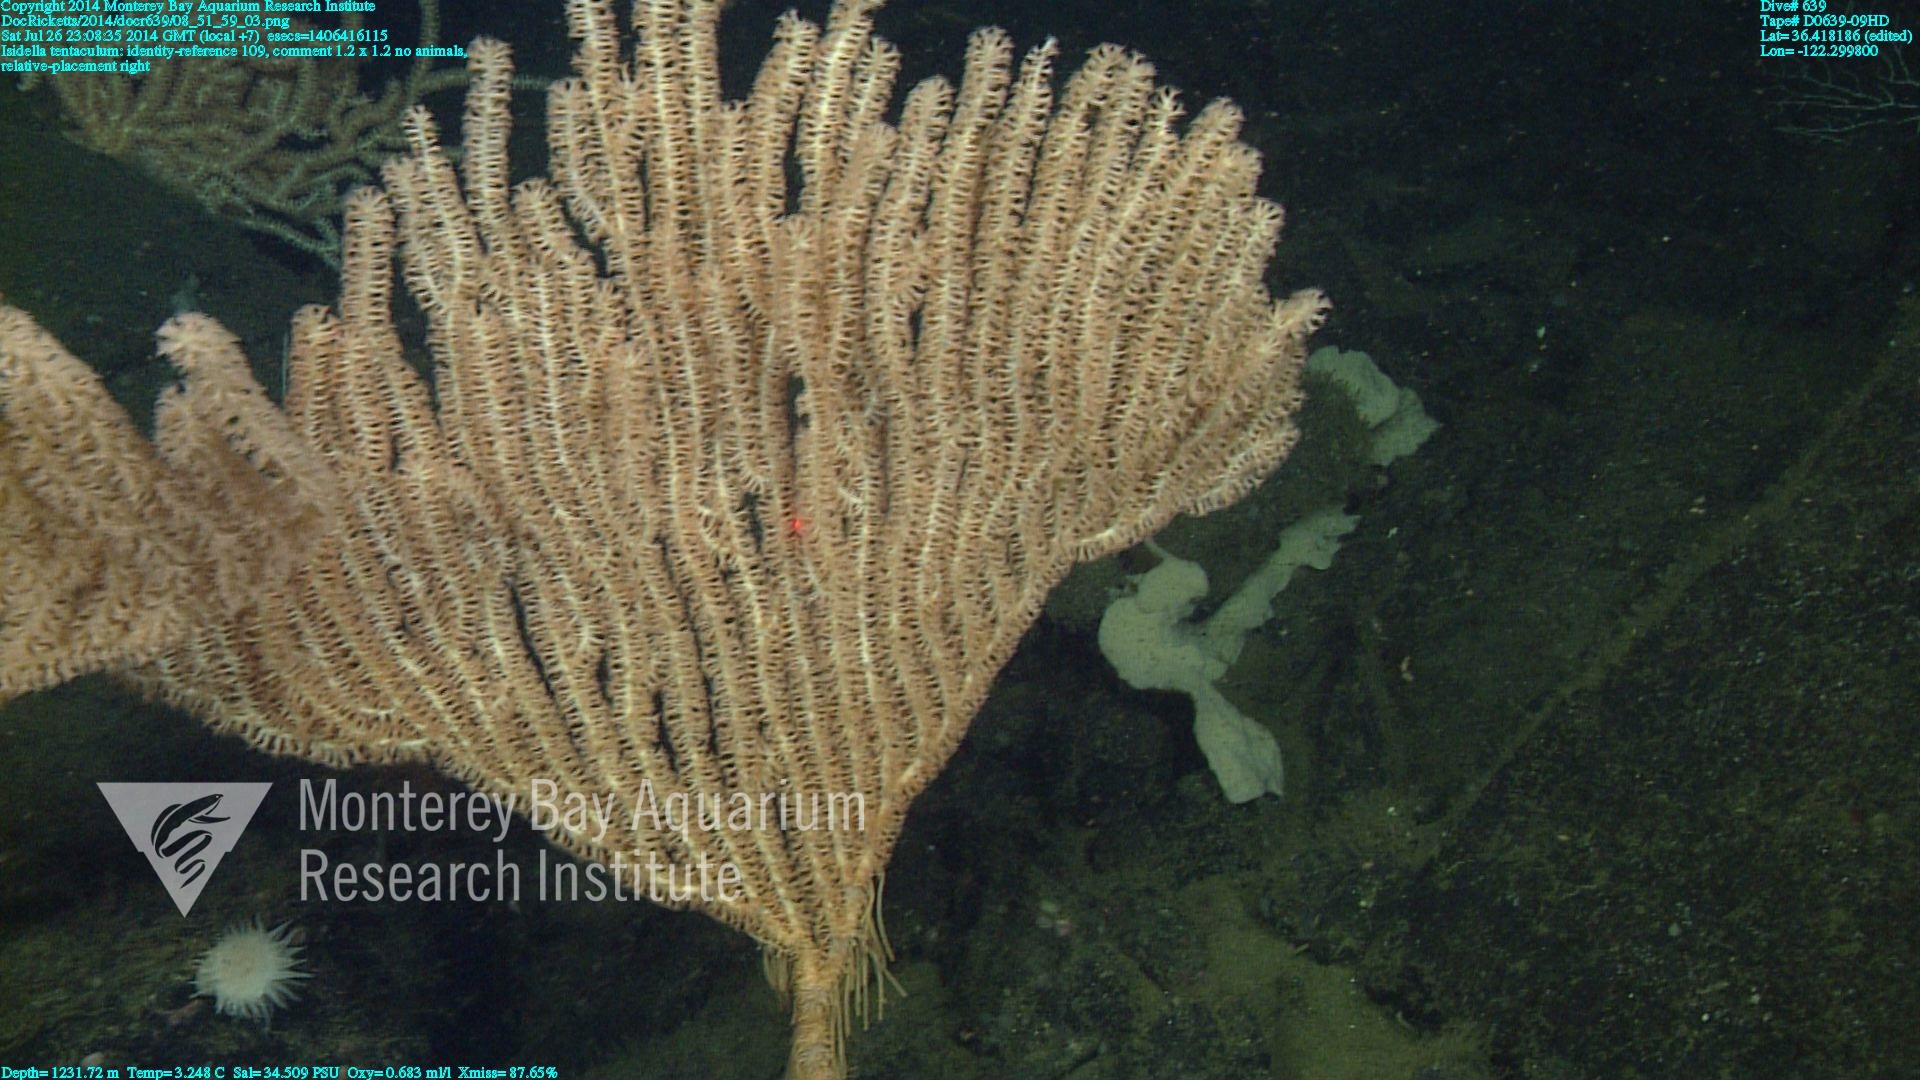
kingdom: Animalia
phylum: Cnidaria
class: Anthozoa
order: Scleralcyonacea
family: Keratoisididae
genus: Isidella
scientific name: Isidella tentaculum
